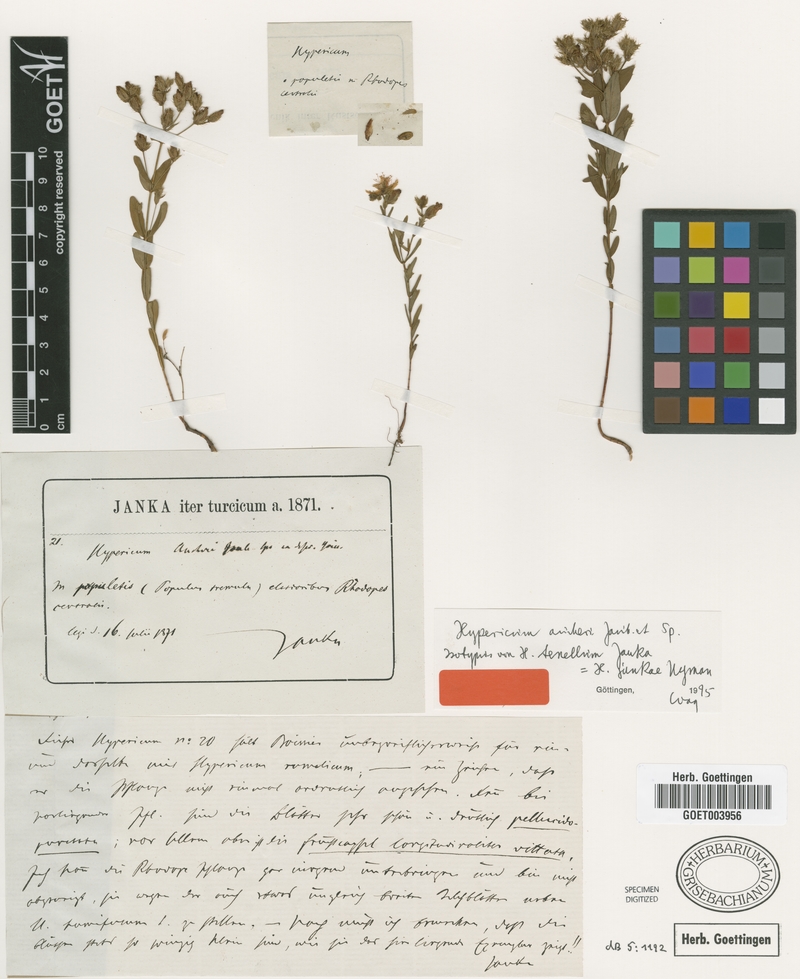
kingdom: Plantae
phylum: Tracheophyta
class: Magnoliopsida
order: Malpighiales
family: Hypericaceae
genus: Hypericum
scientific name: Hypericum aucheri
